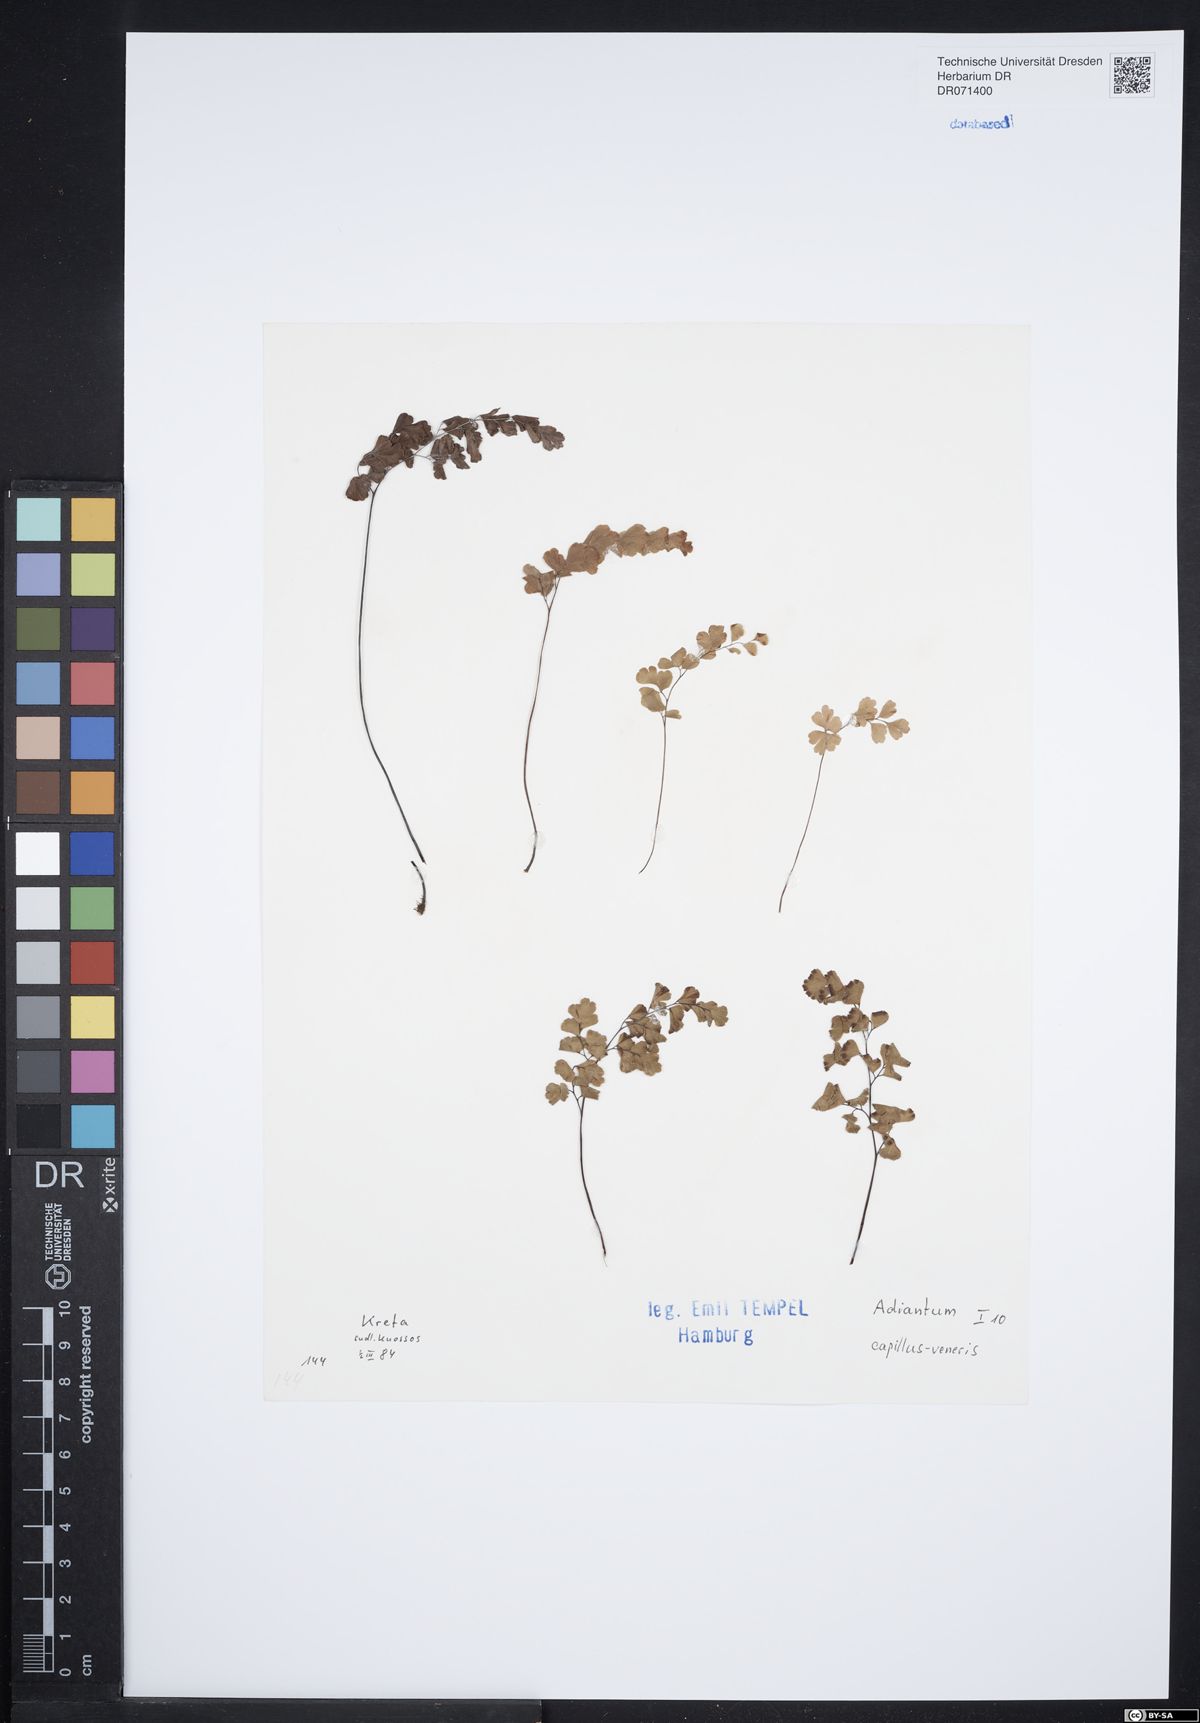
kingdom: Plantae
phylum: Tracheophyta
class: Polypodiopsida
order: Polypodiales
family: Pteridaceae
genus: Adiantum
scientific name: Adiantum capillus-veneris
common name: Maidenhair fern
